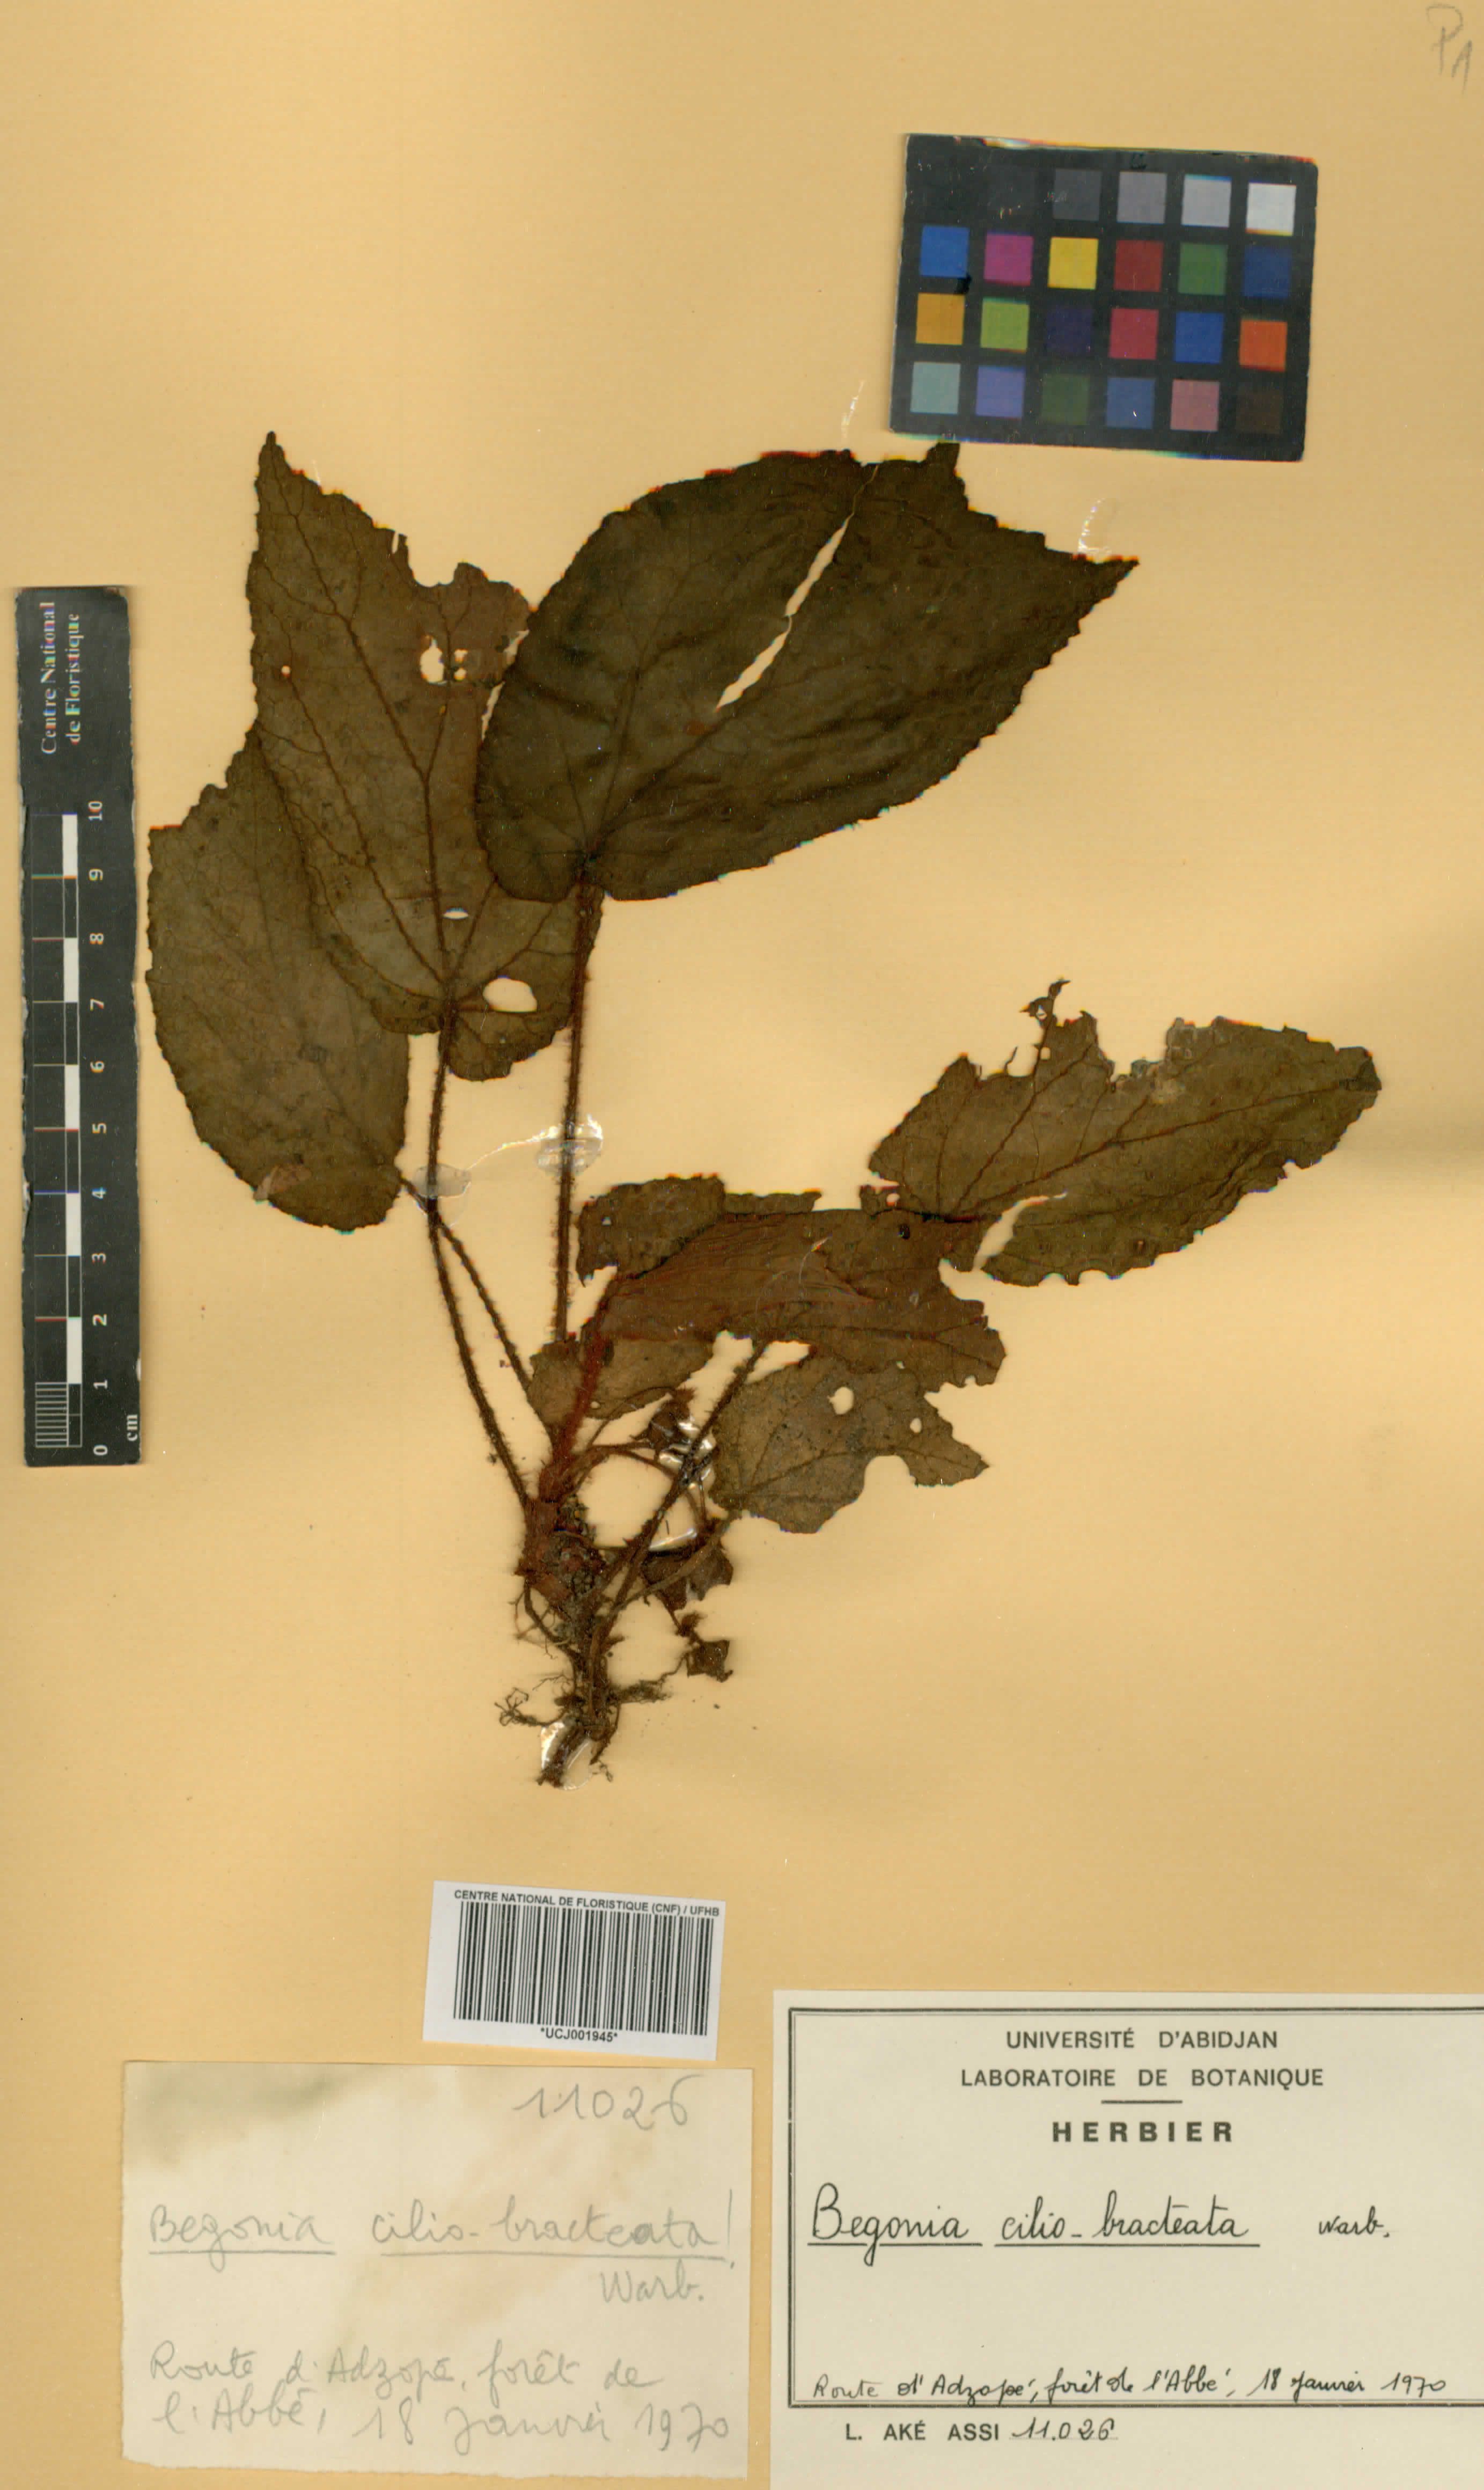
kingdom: Plantae
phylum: Tracheophyta
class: Magnoliopsida
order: Cucurbitales
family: Begoniaceae
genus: Begonia
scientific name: Begonia ciliobracteata
